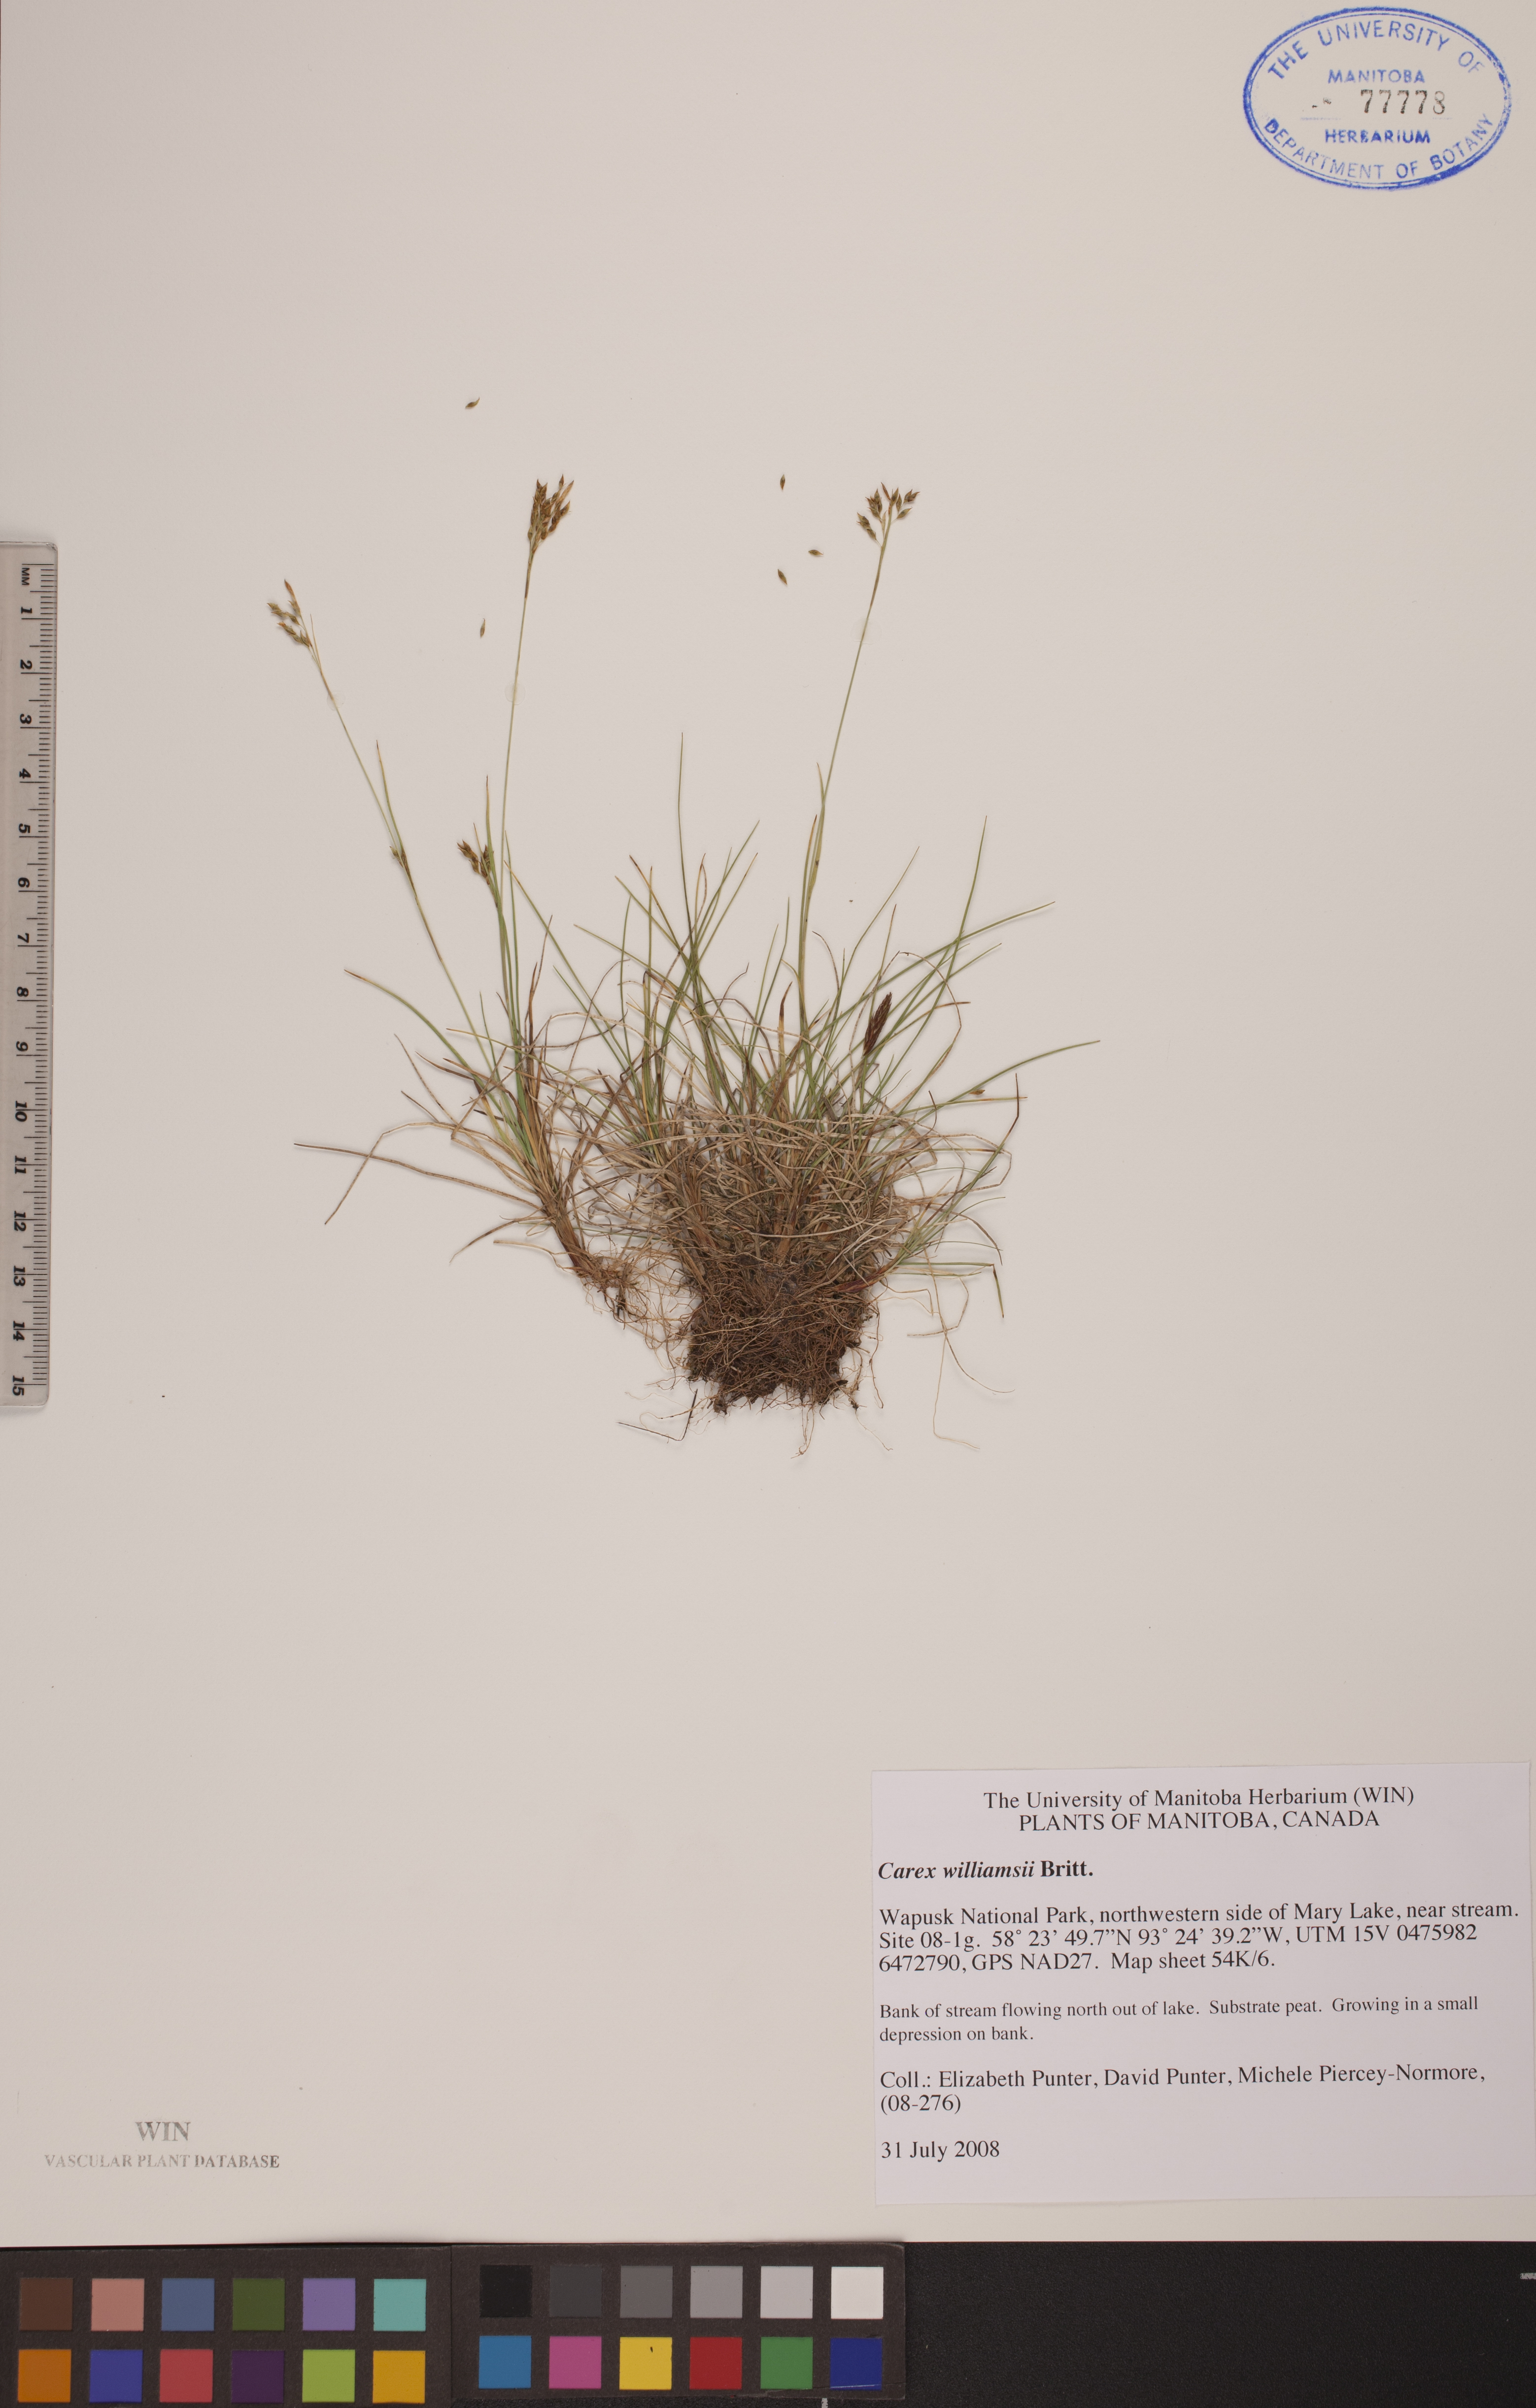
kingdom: Plantae
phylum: Tracheophyta
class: Liliopsida
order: Poales
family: Cyperaceae
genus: Carex
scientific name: Carex williamsii
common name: Williams' sedge
